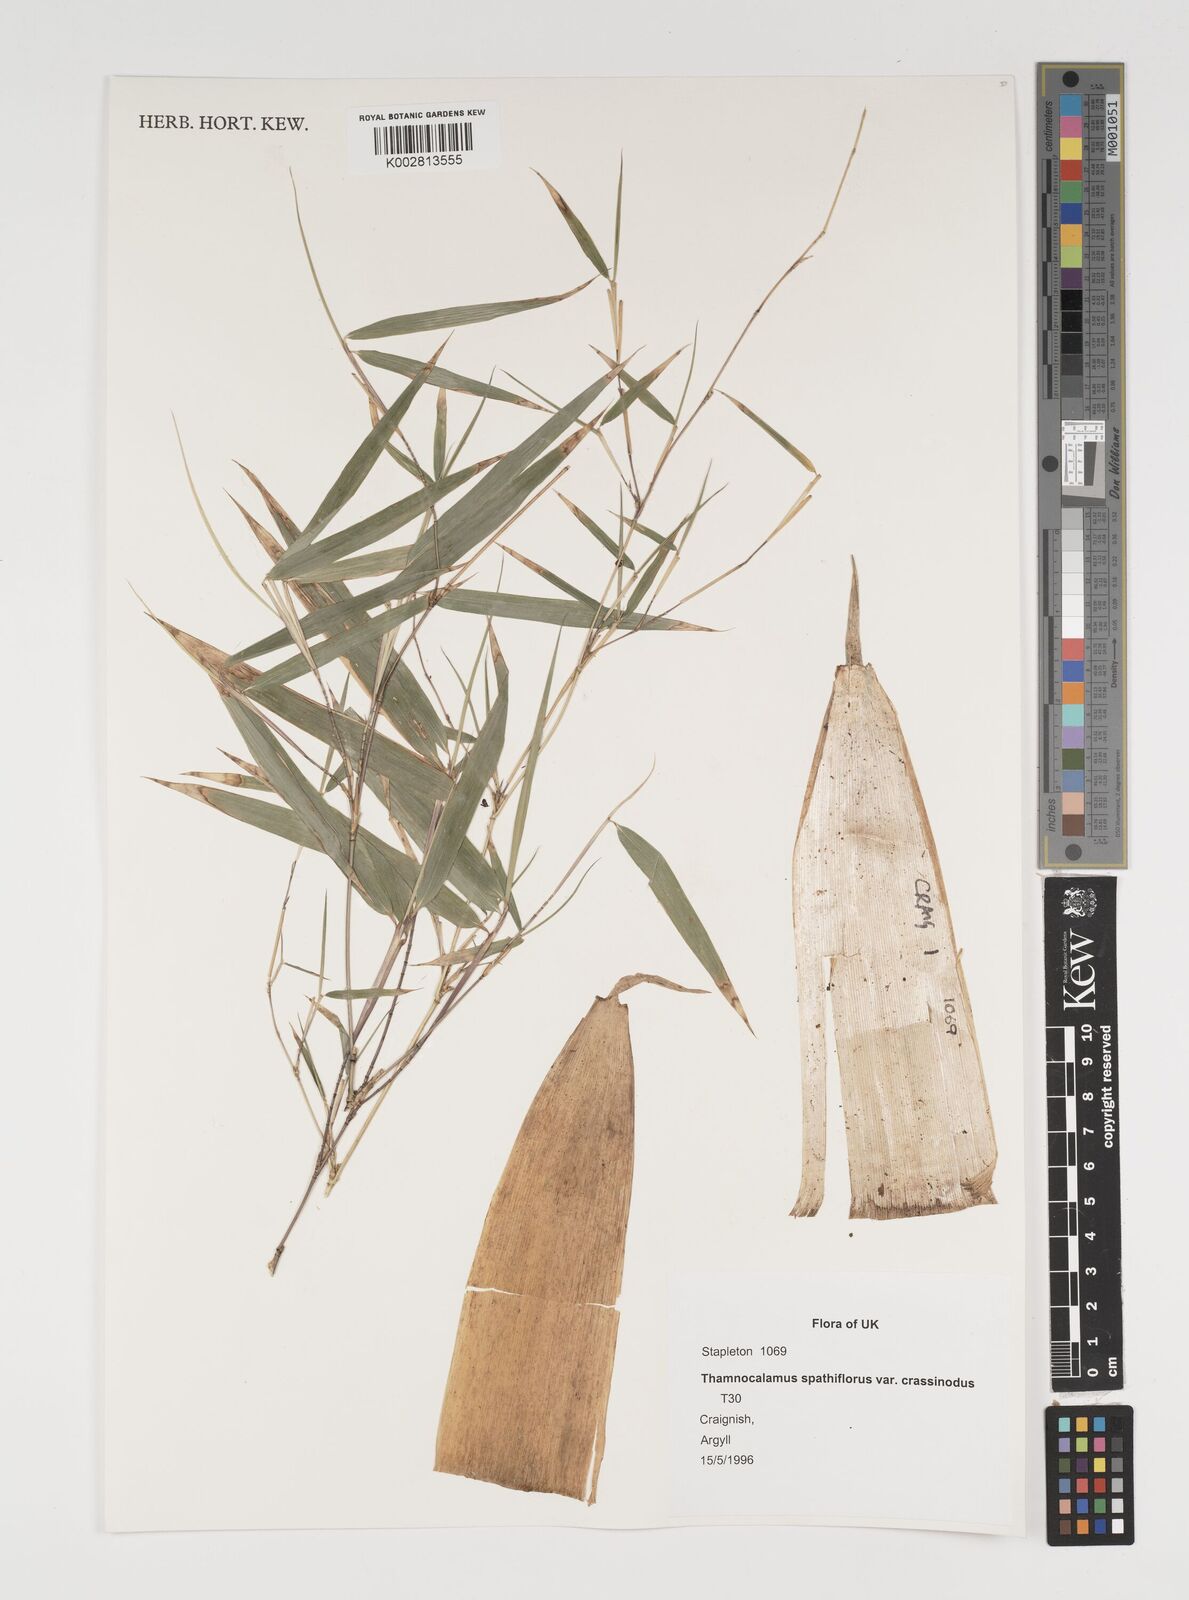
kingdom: Plantae
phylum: Tracheophyta
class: Liliopsida
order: Poales
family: Poaceae
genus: Fargesia
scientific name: Fargesia murielae
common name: Umbrella bamboo
